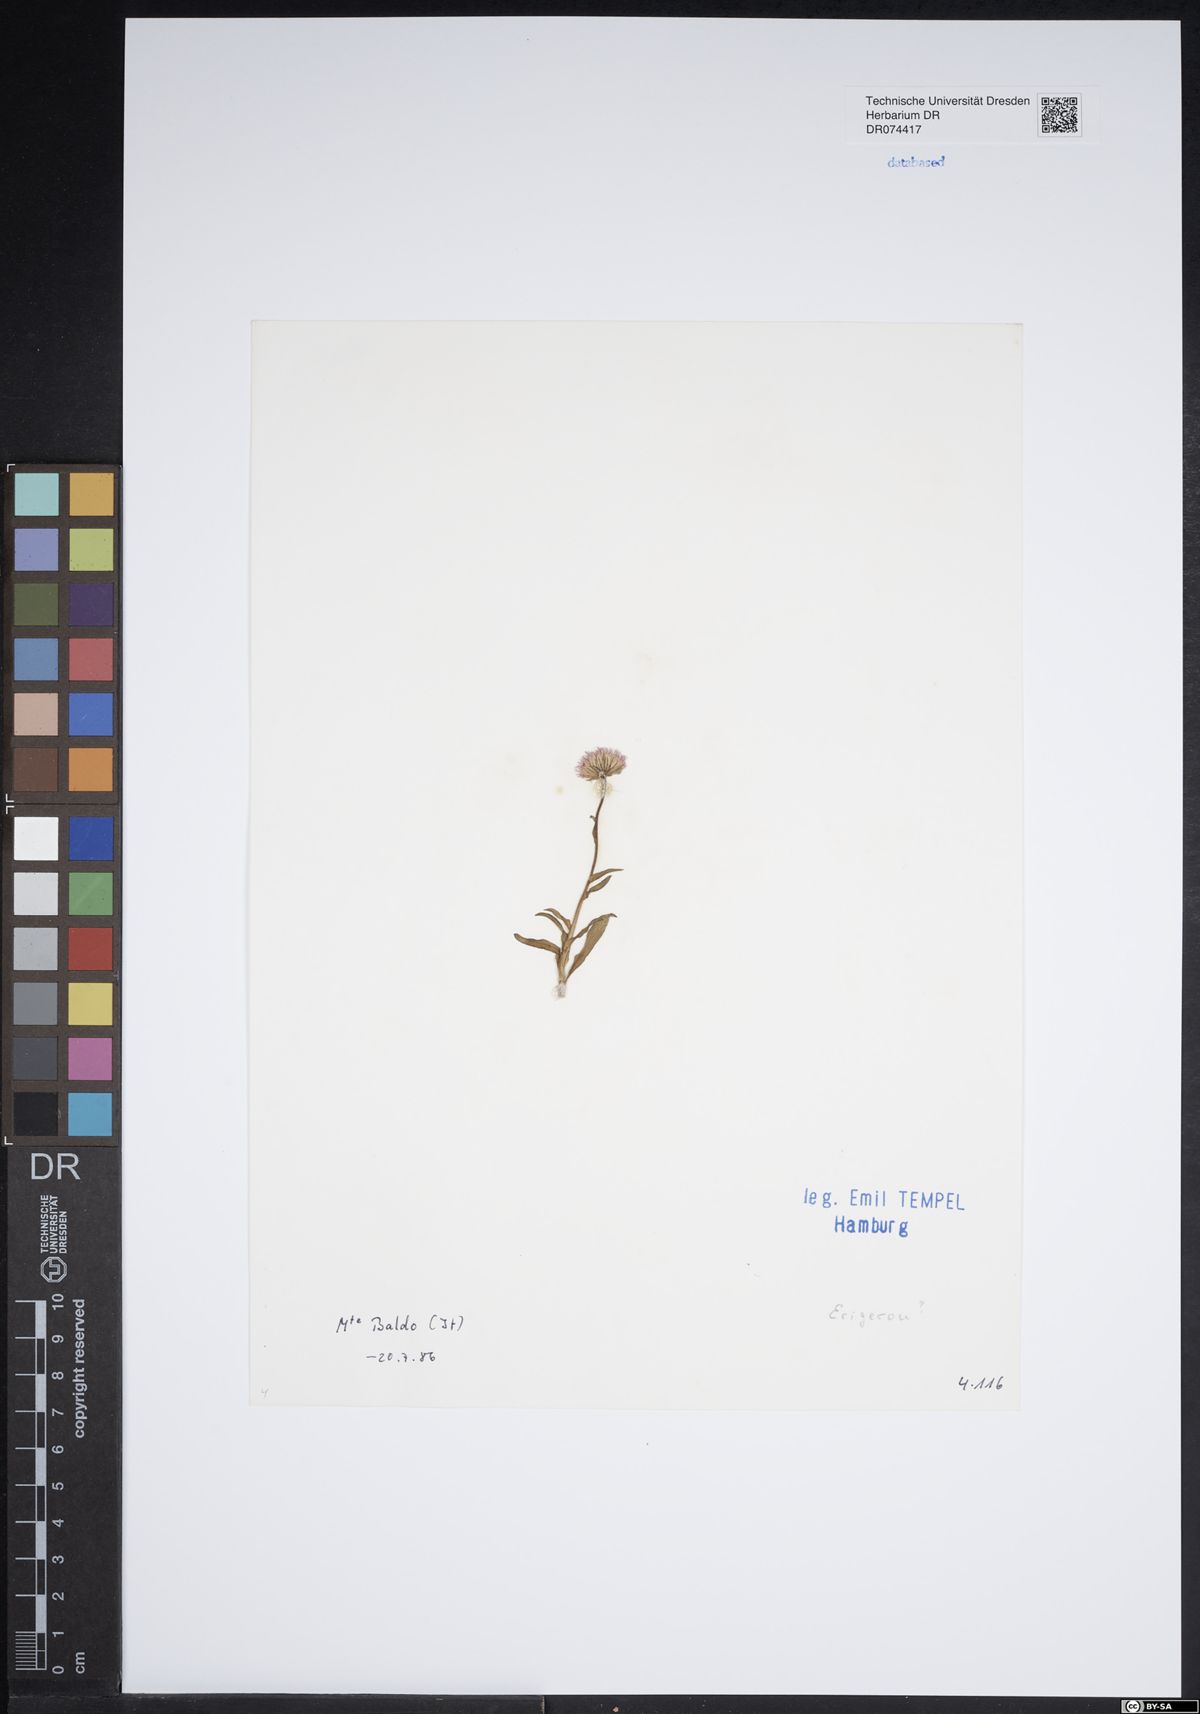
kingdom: Plantae
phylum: Tracheophyta
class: Magnoliopsida
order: Asterales
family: Asteraceae
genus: Erigeron
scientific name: Erigeron
